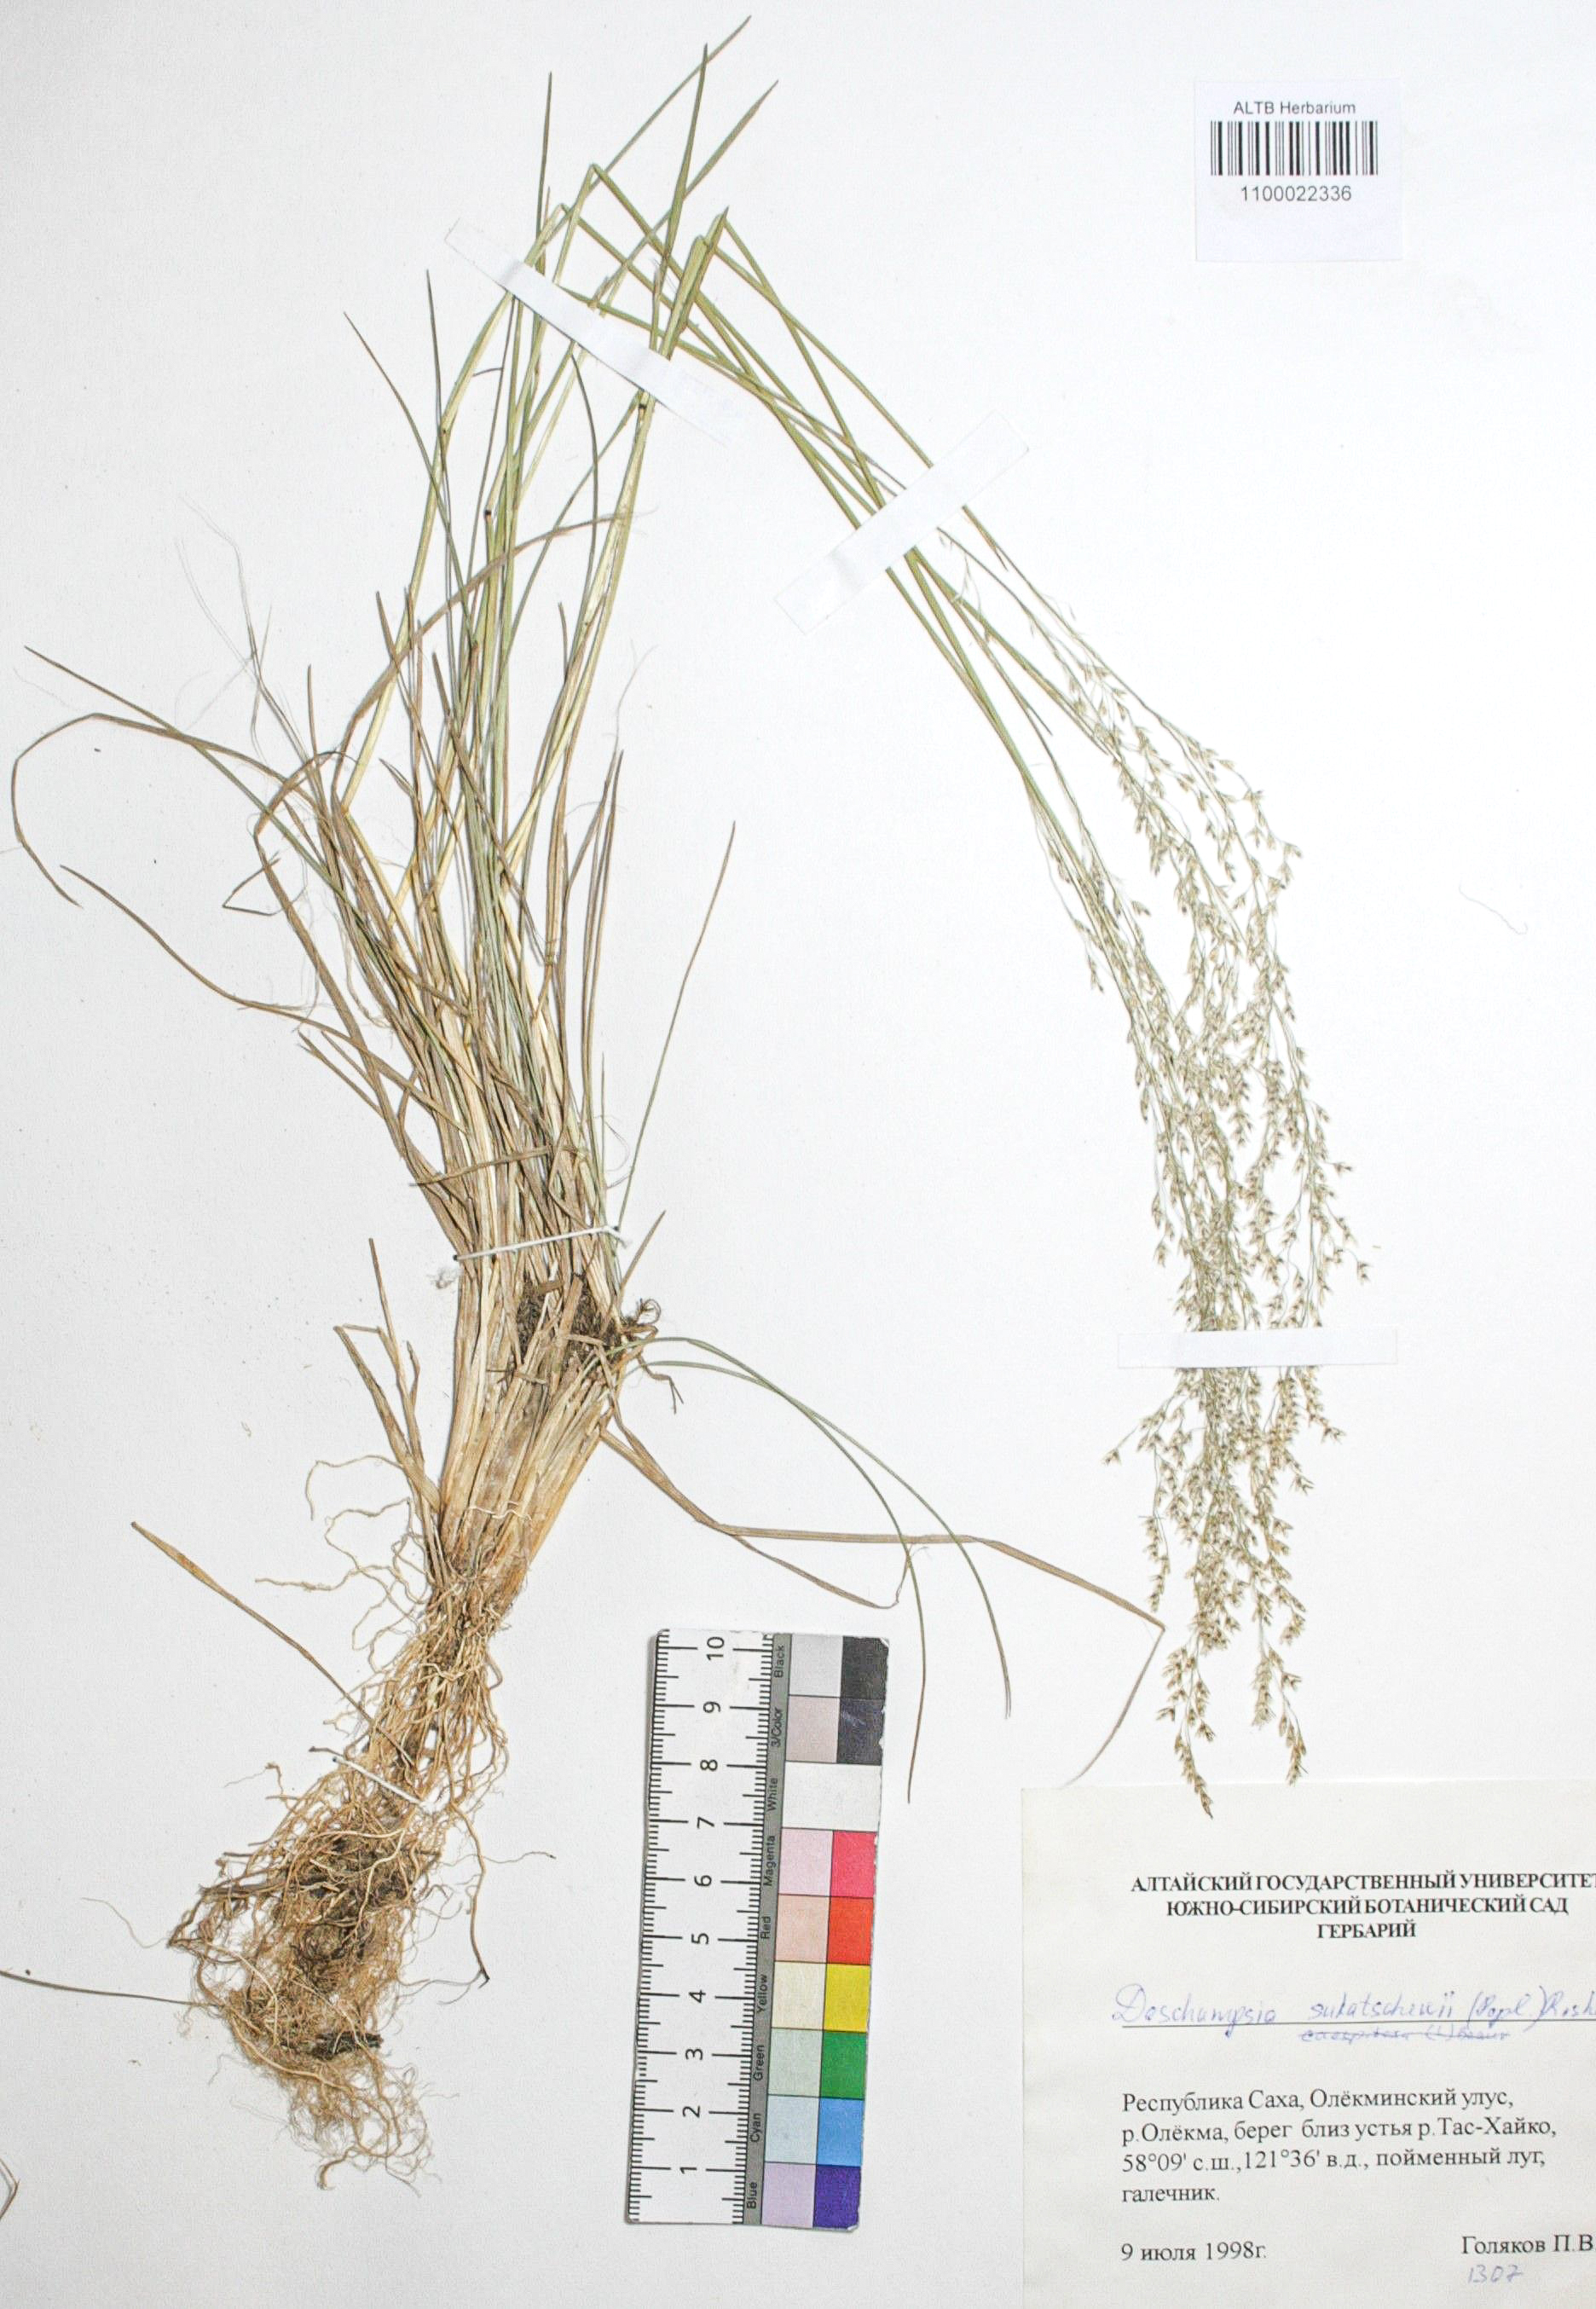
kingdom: Plantae
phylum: Tracheophyta
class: Liliopsida
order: Poales
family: Poaceae
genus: Deschampsia
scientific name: Deschampsia cespitosa
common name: Tufted hair-grass
